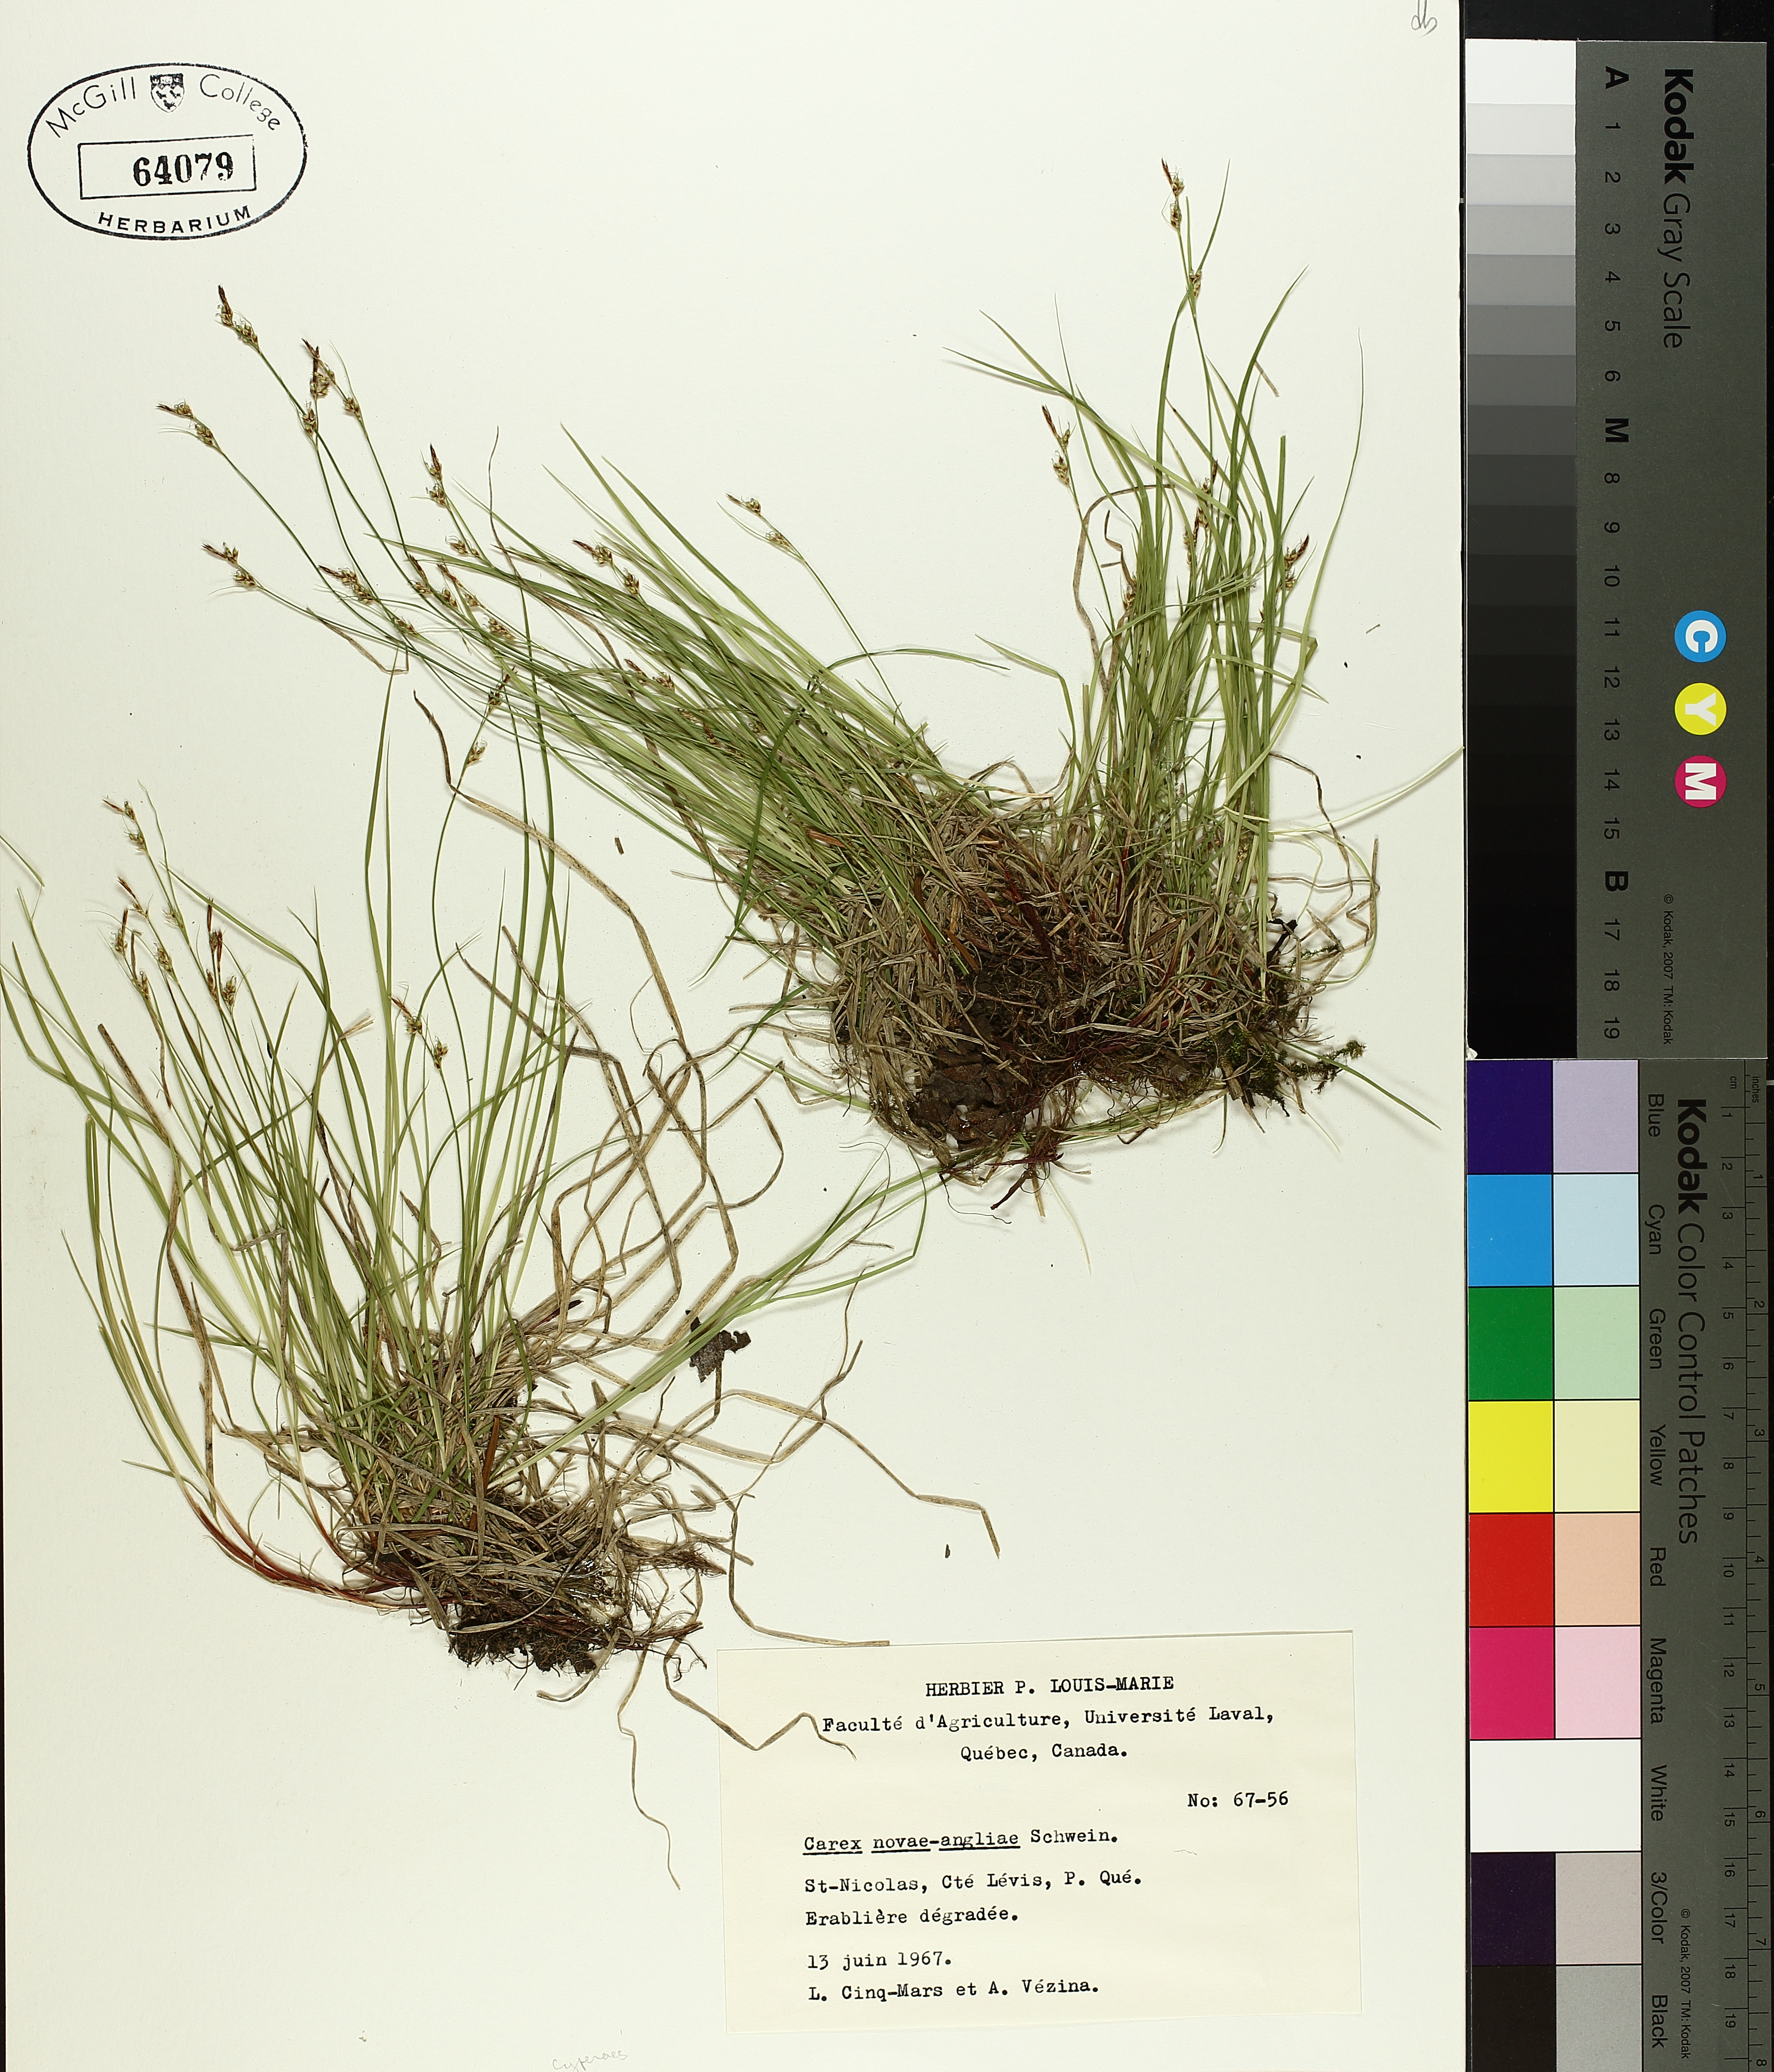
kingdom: Plantae
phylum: Tracheophyta
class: Liliopsida
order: Poales
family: Cyperaceae
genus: Carex
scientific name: Carex novae-angliae
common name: New england sedge
